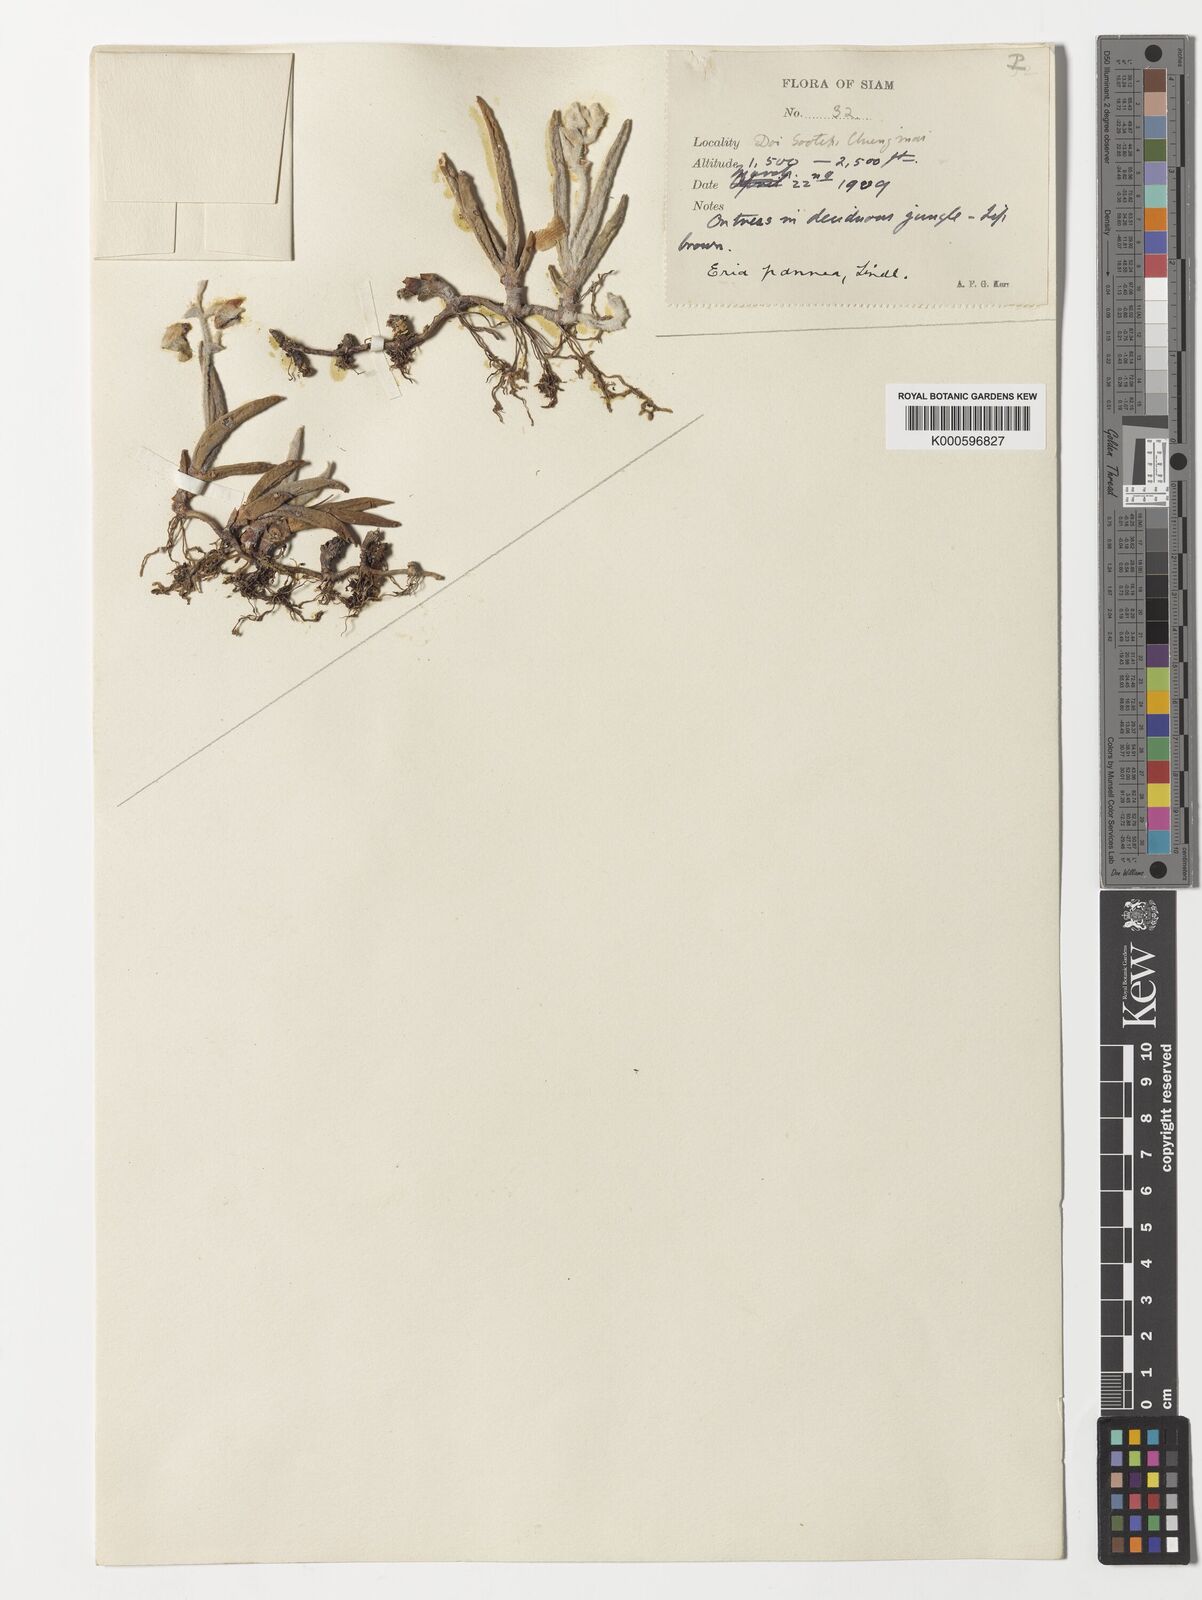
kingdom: Plantae
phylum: Tracheophyta
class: Liliopsida
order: Asparagales
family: Orchidaceae
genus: Strongyleria
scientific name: Strongyleria pannea
